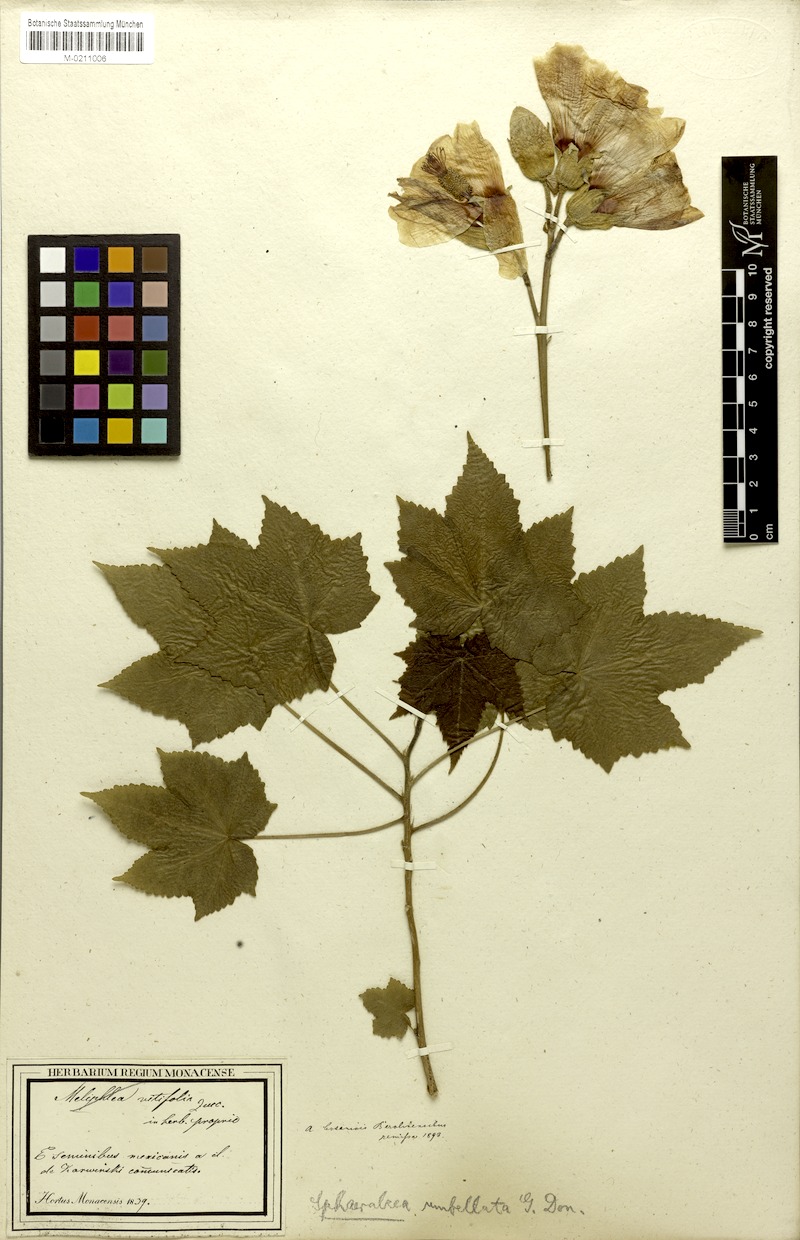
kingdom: Plantae
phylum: Tracheophyta
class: Magnoliopsida
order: Malvales
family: Malvaceae
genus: Phymosia
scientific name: Phymosia rosea
